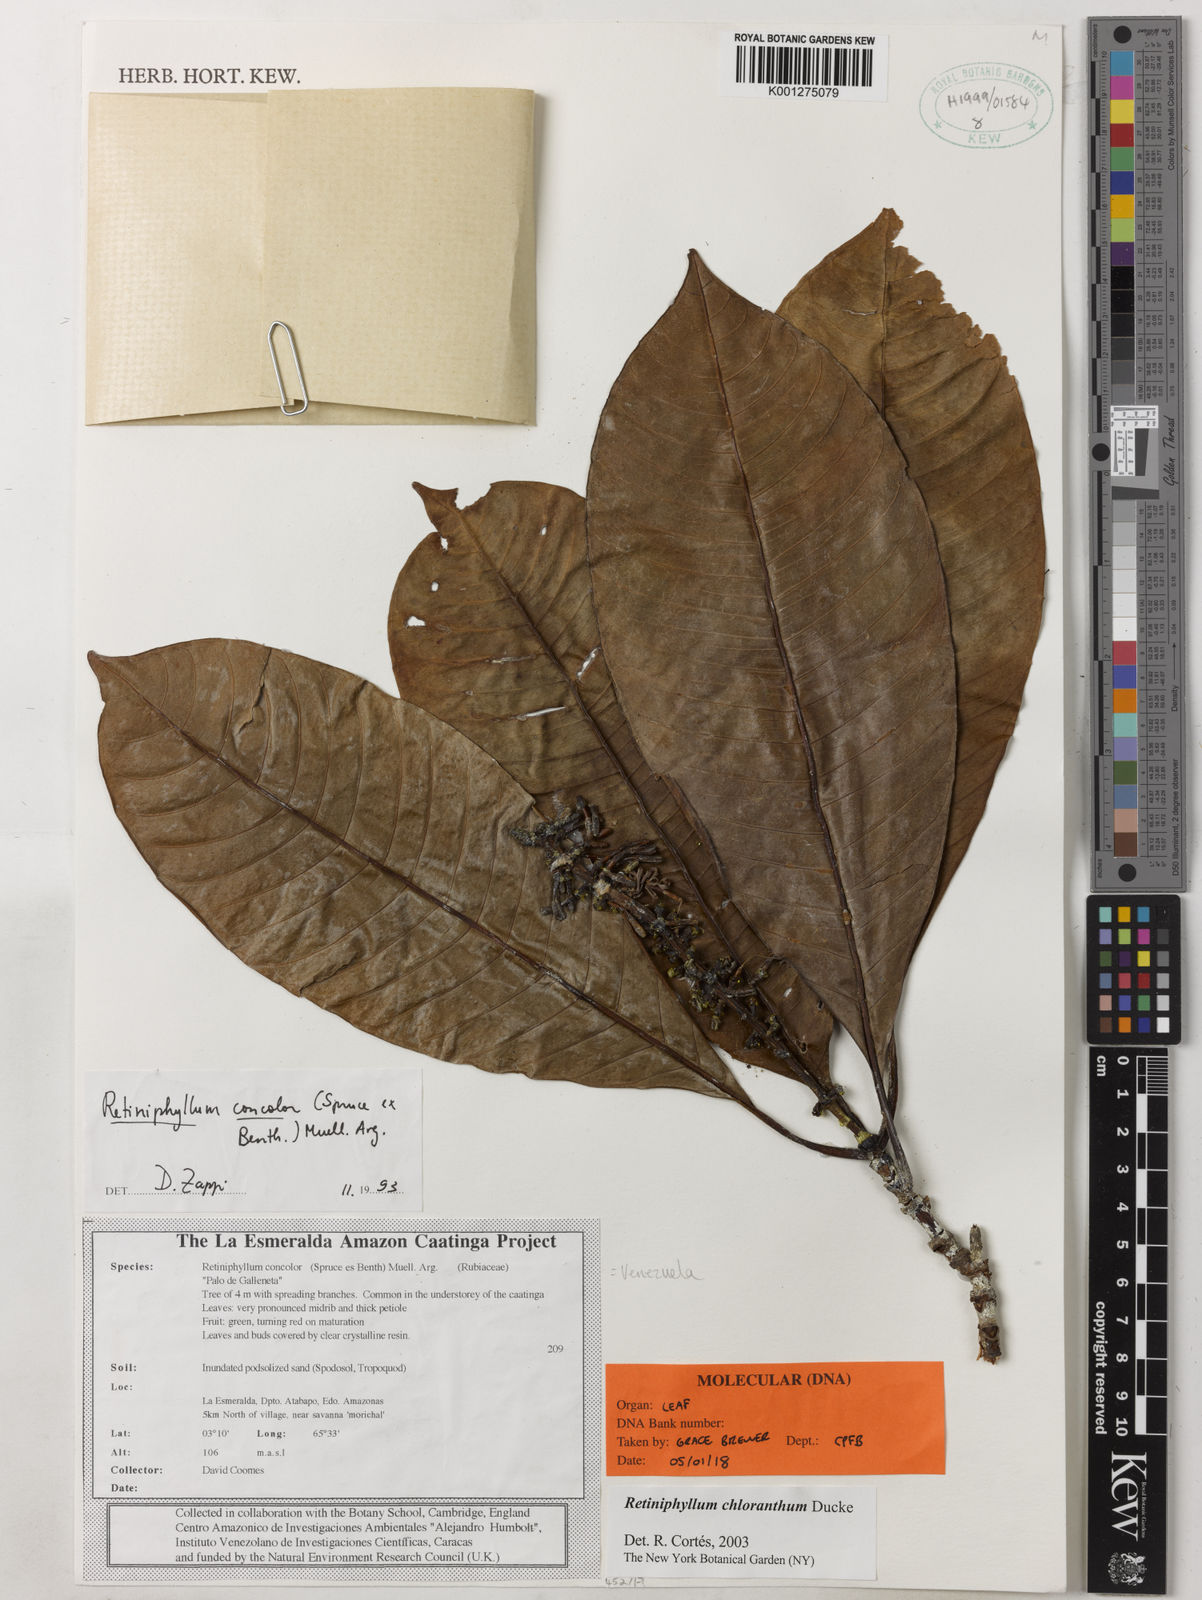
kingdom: Plantae
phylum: Tracheophyta
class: Magnoliopsida
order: Gentianales
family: Rubiaceae
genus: Retiniphyllum
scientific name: Retiniphyllum
